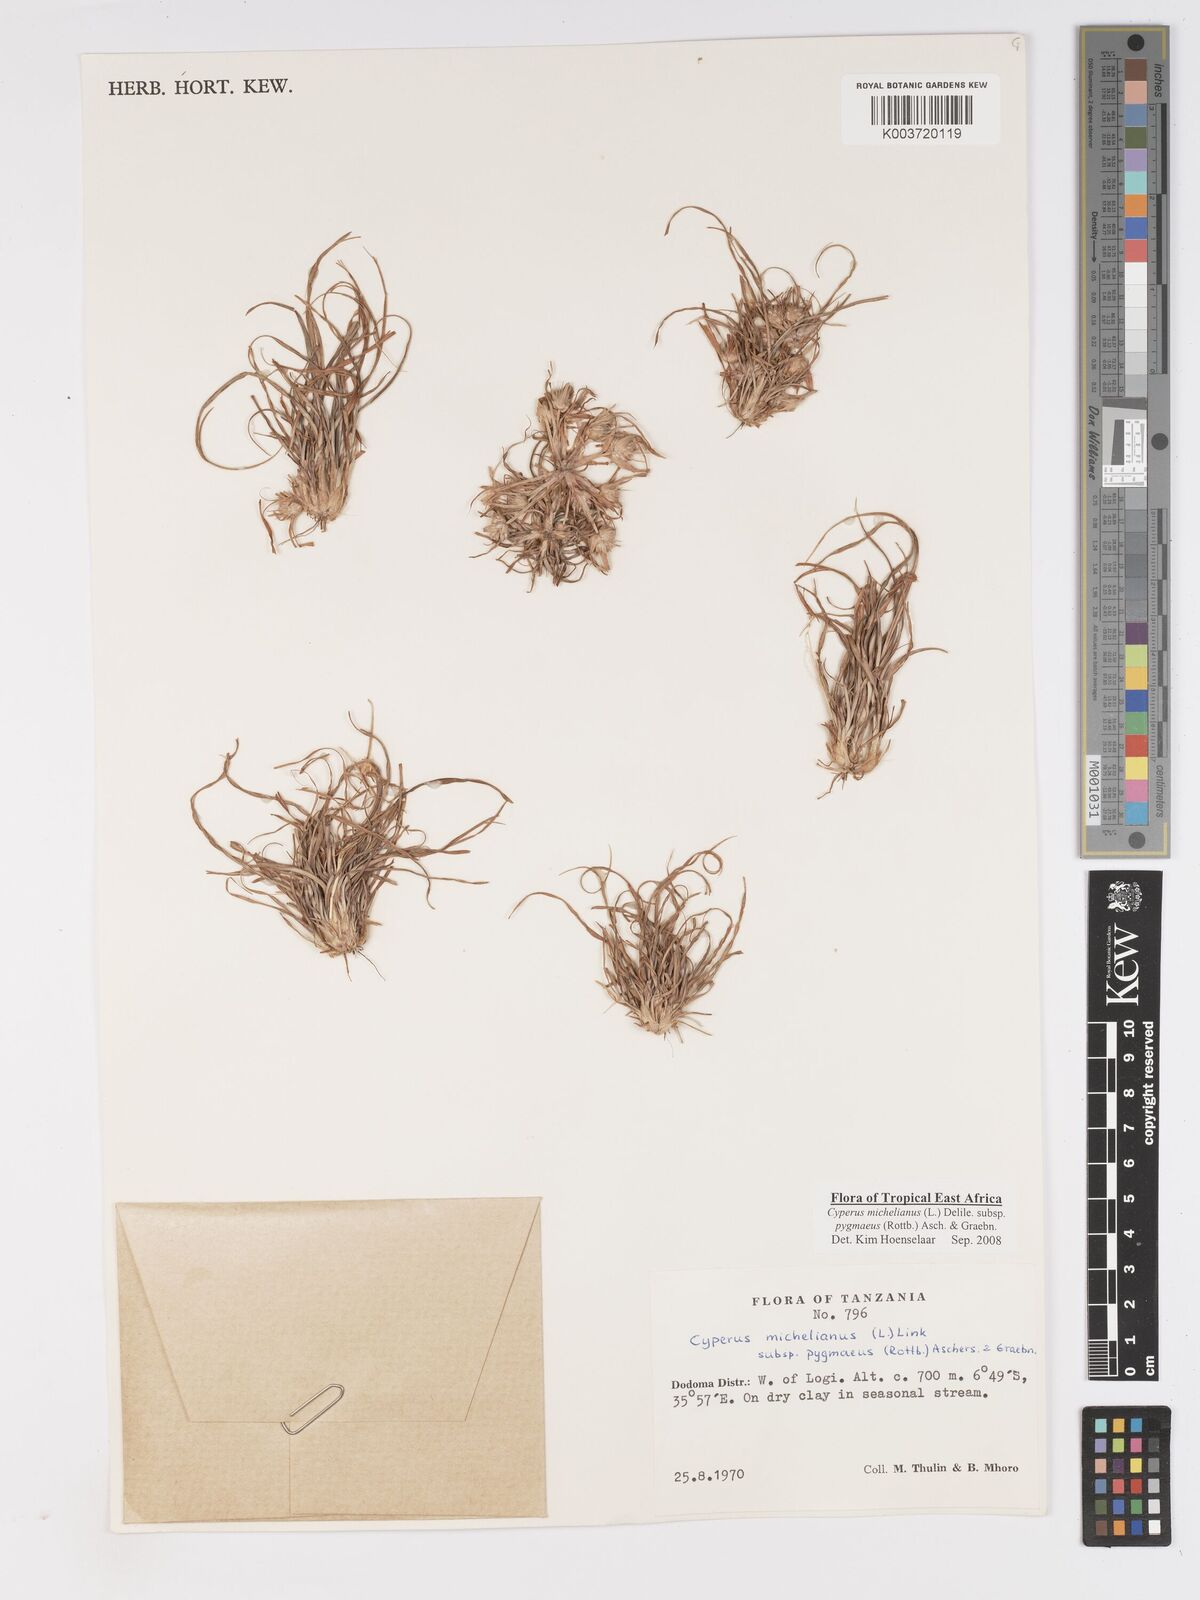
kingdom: Plantae
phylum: Tracheophyta
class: Liliopsida
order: Poales
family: Cyperaceae
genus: Cyperus
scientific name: Cyperus michelianus
